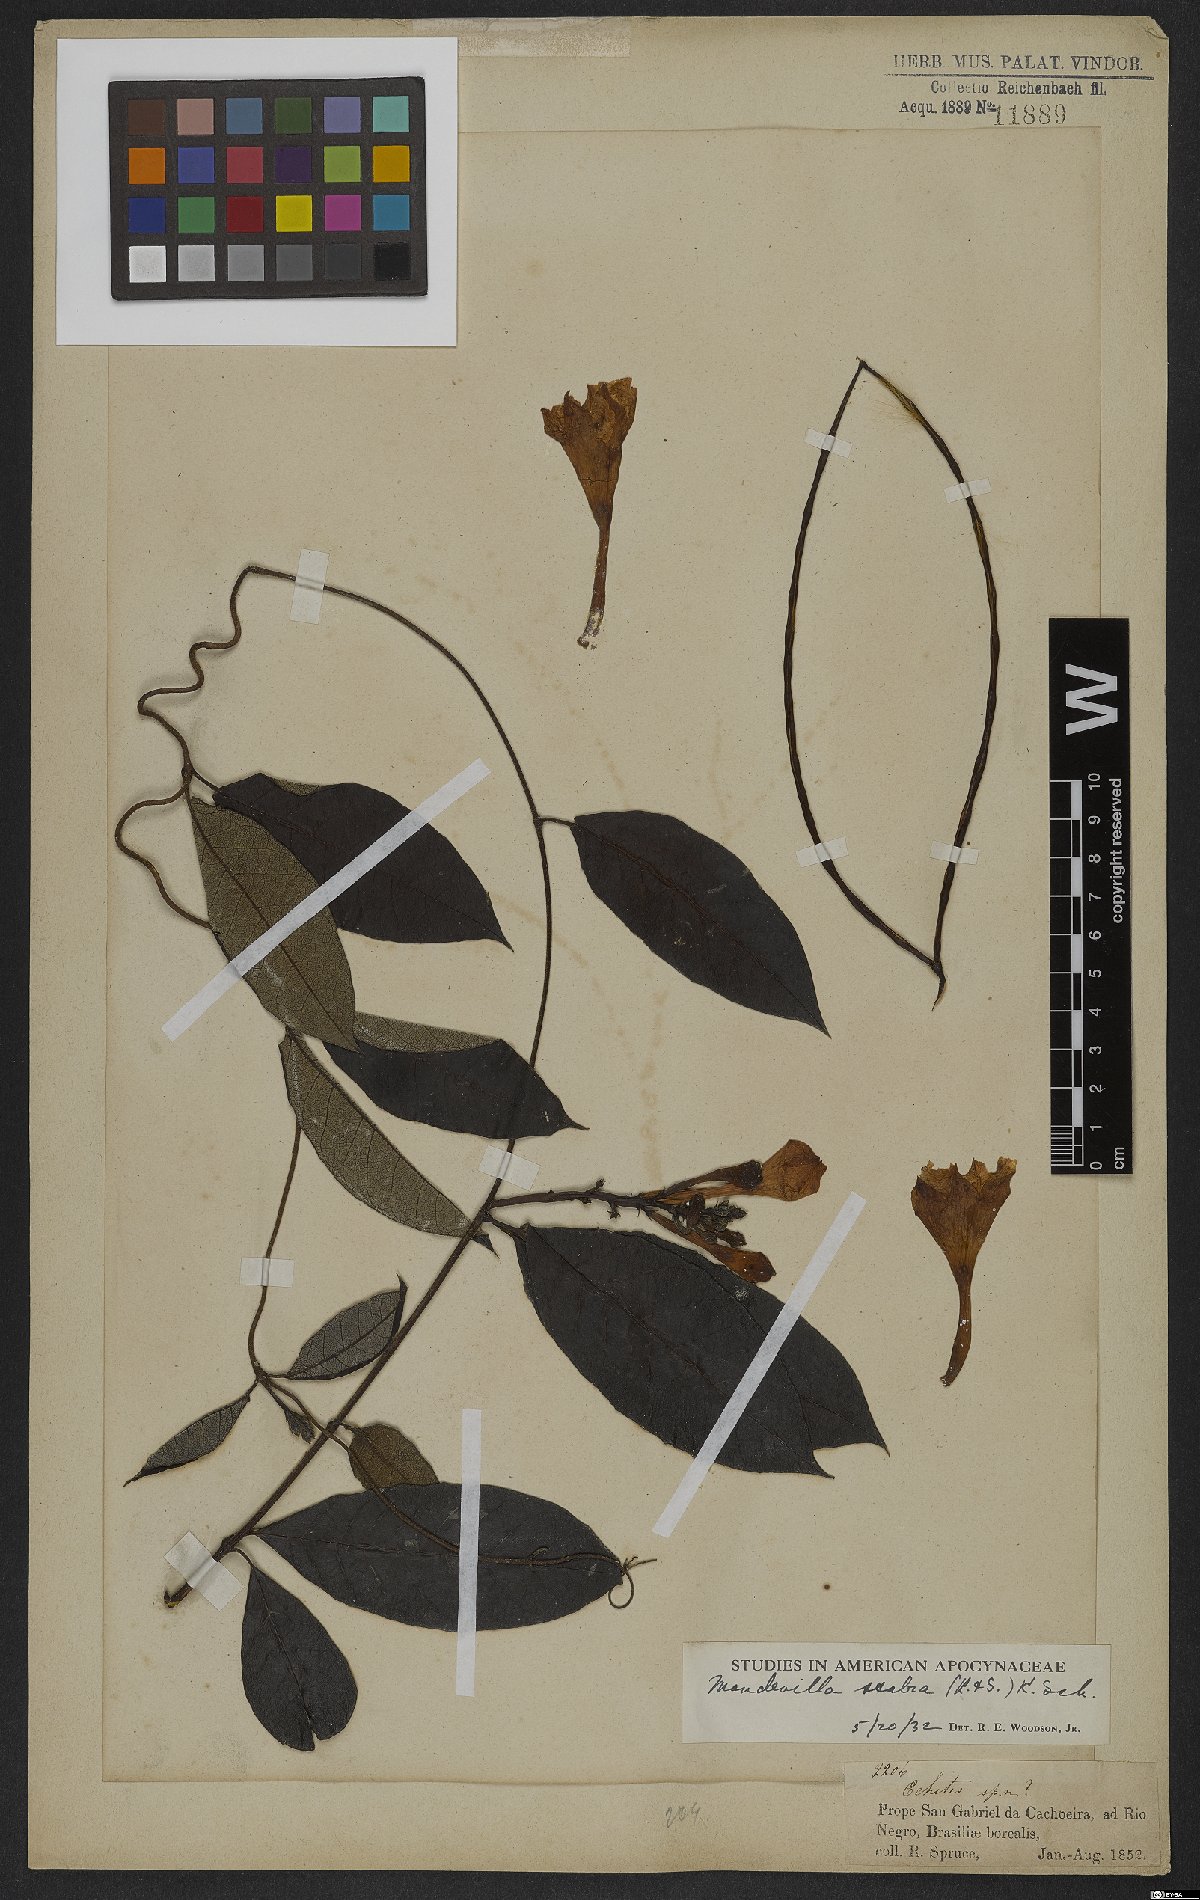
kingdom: Plantae
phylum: Tracheophyta
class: Magnoliopsida
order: Gentianales
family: Apocynaceae
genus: Mandevilla
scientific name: Mandevilla scabra
